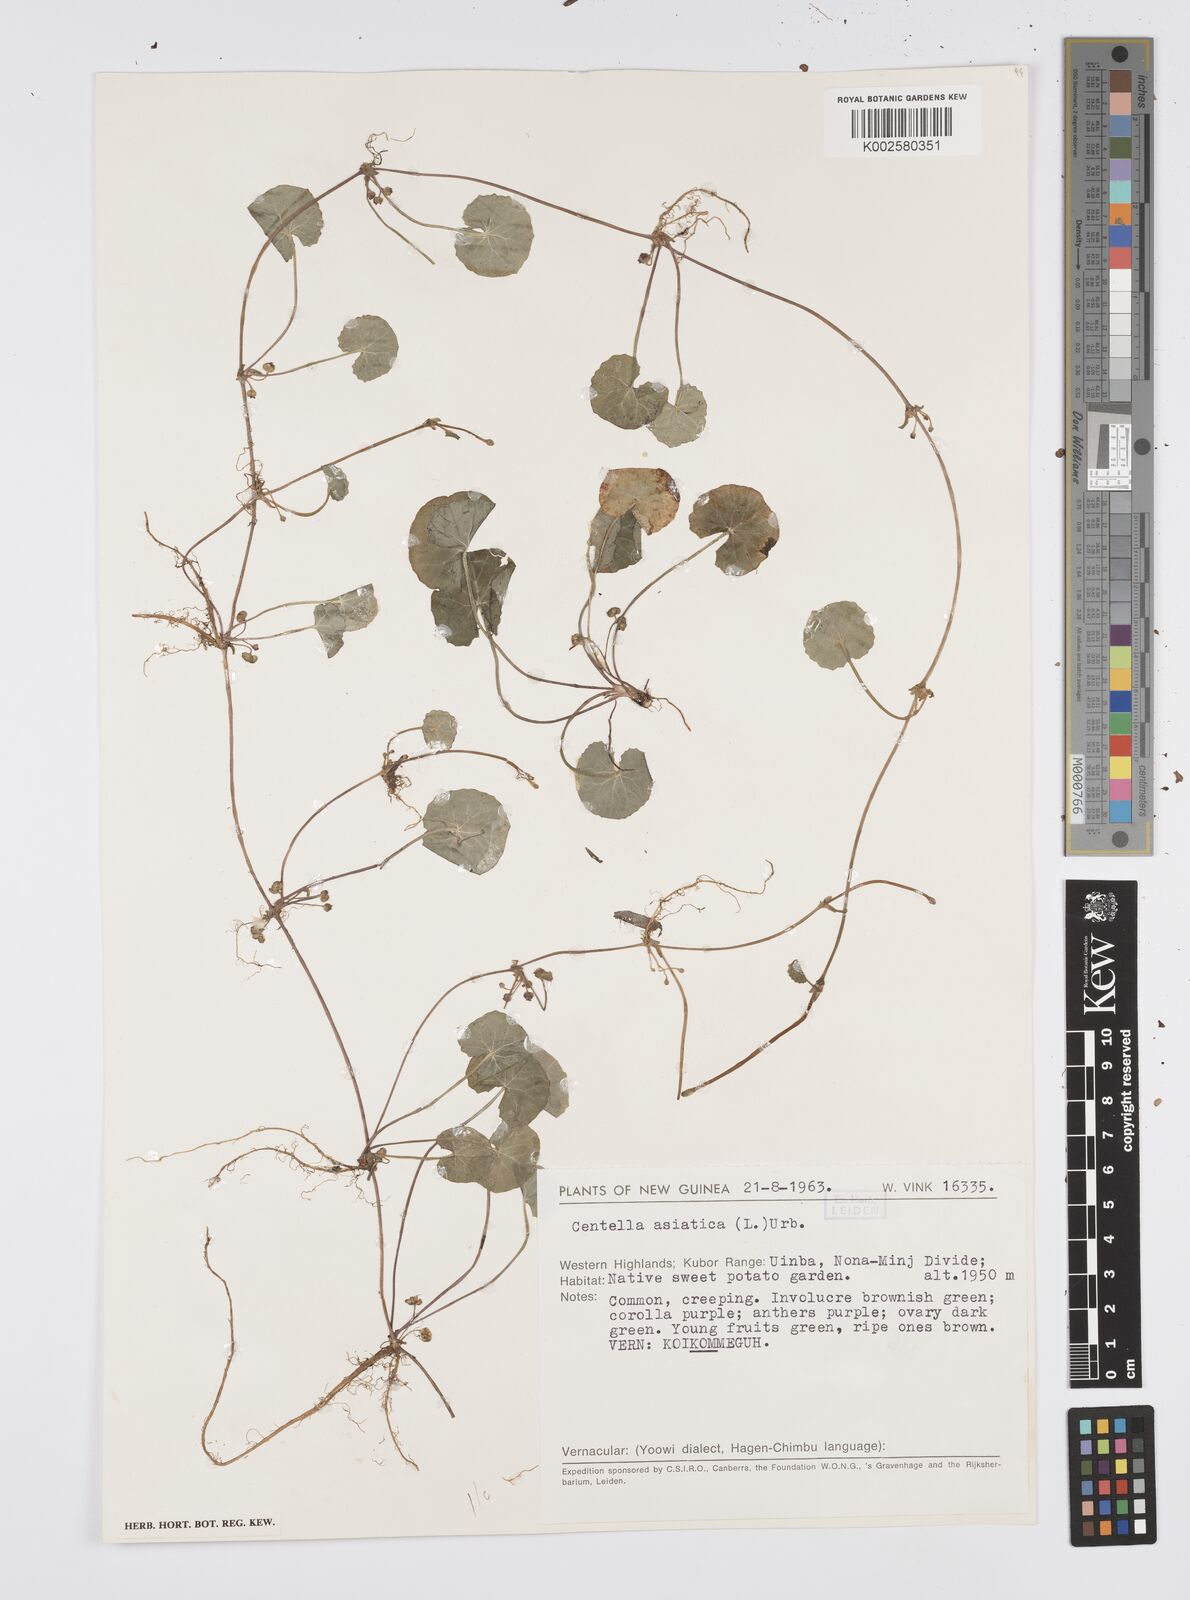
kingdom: Plantae
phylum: Tracheophyta
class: Magnoliopsida
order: Apiales
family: Apiaceae
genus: Centella
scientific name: Centella asiatica
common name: Spadeleaf
